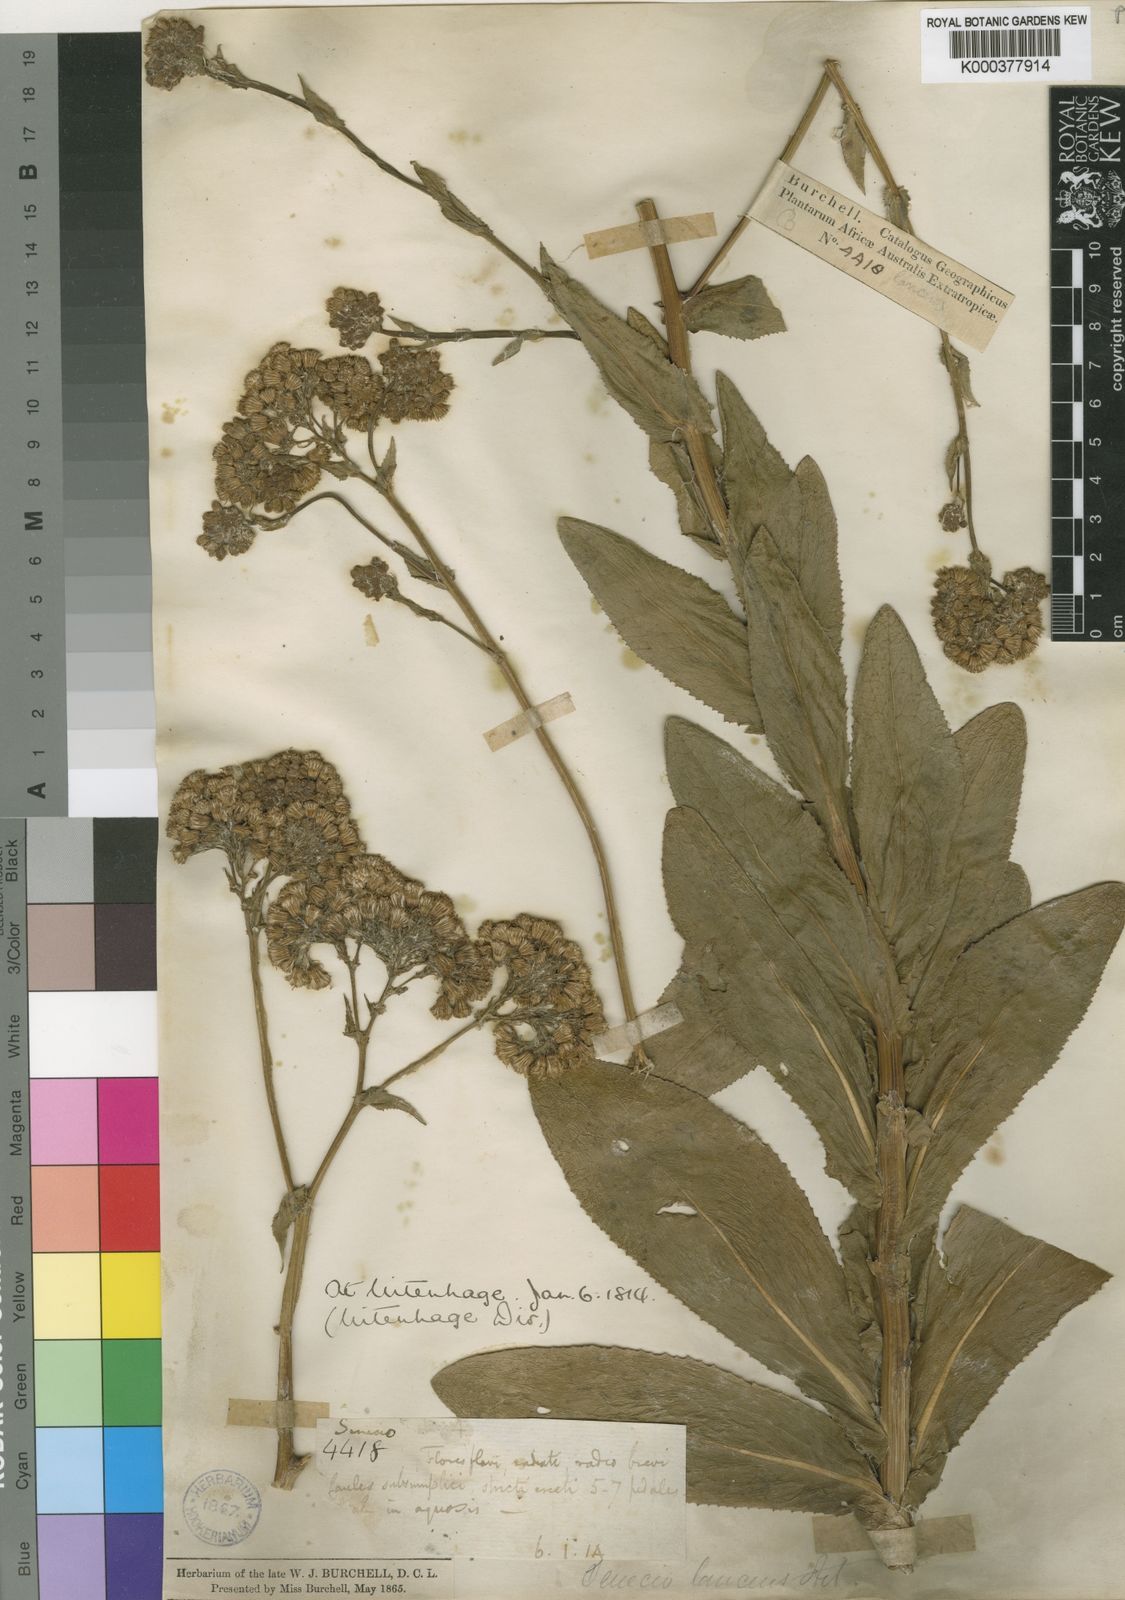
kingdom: Plantae
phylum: Tracheophyta
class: Magnoliopsida
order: Asterales
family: Asteraceae
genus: Senecio
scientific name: Senecio lanceus
